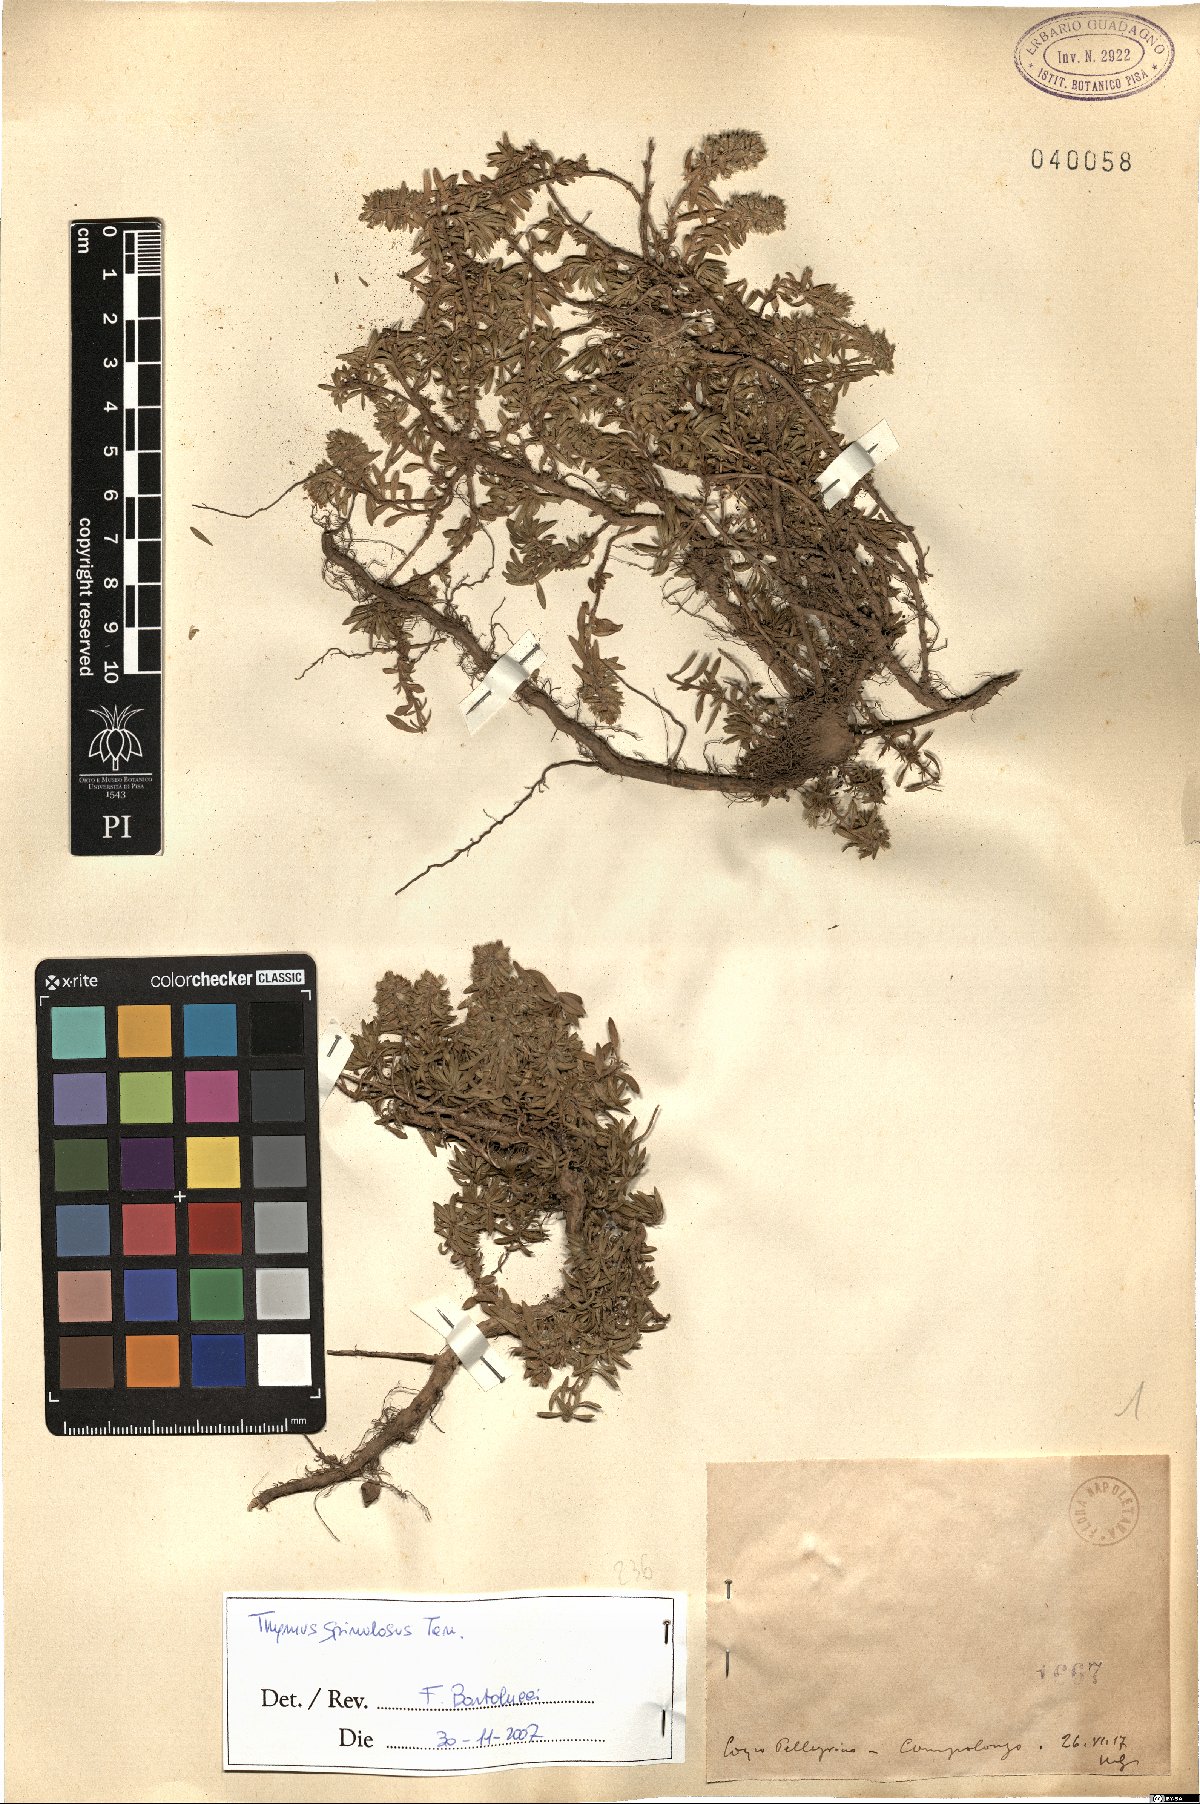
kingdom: Plantae
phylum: Tracheophyta
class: Magnoliopsida
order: Lamiales
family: Lamiaceae
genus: Thymus
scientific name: Thymus spinulosus
